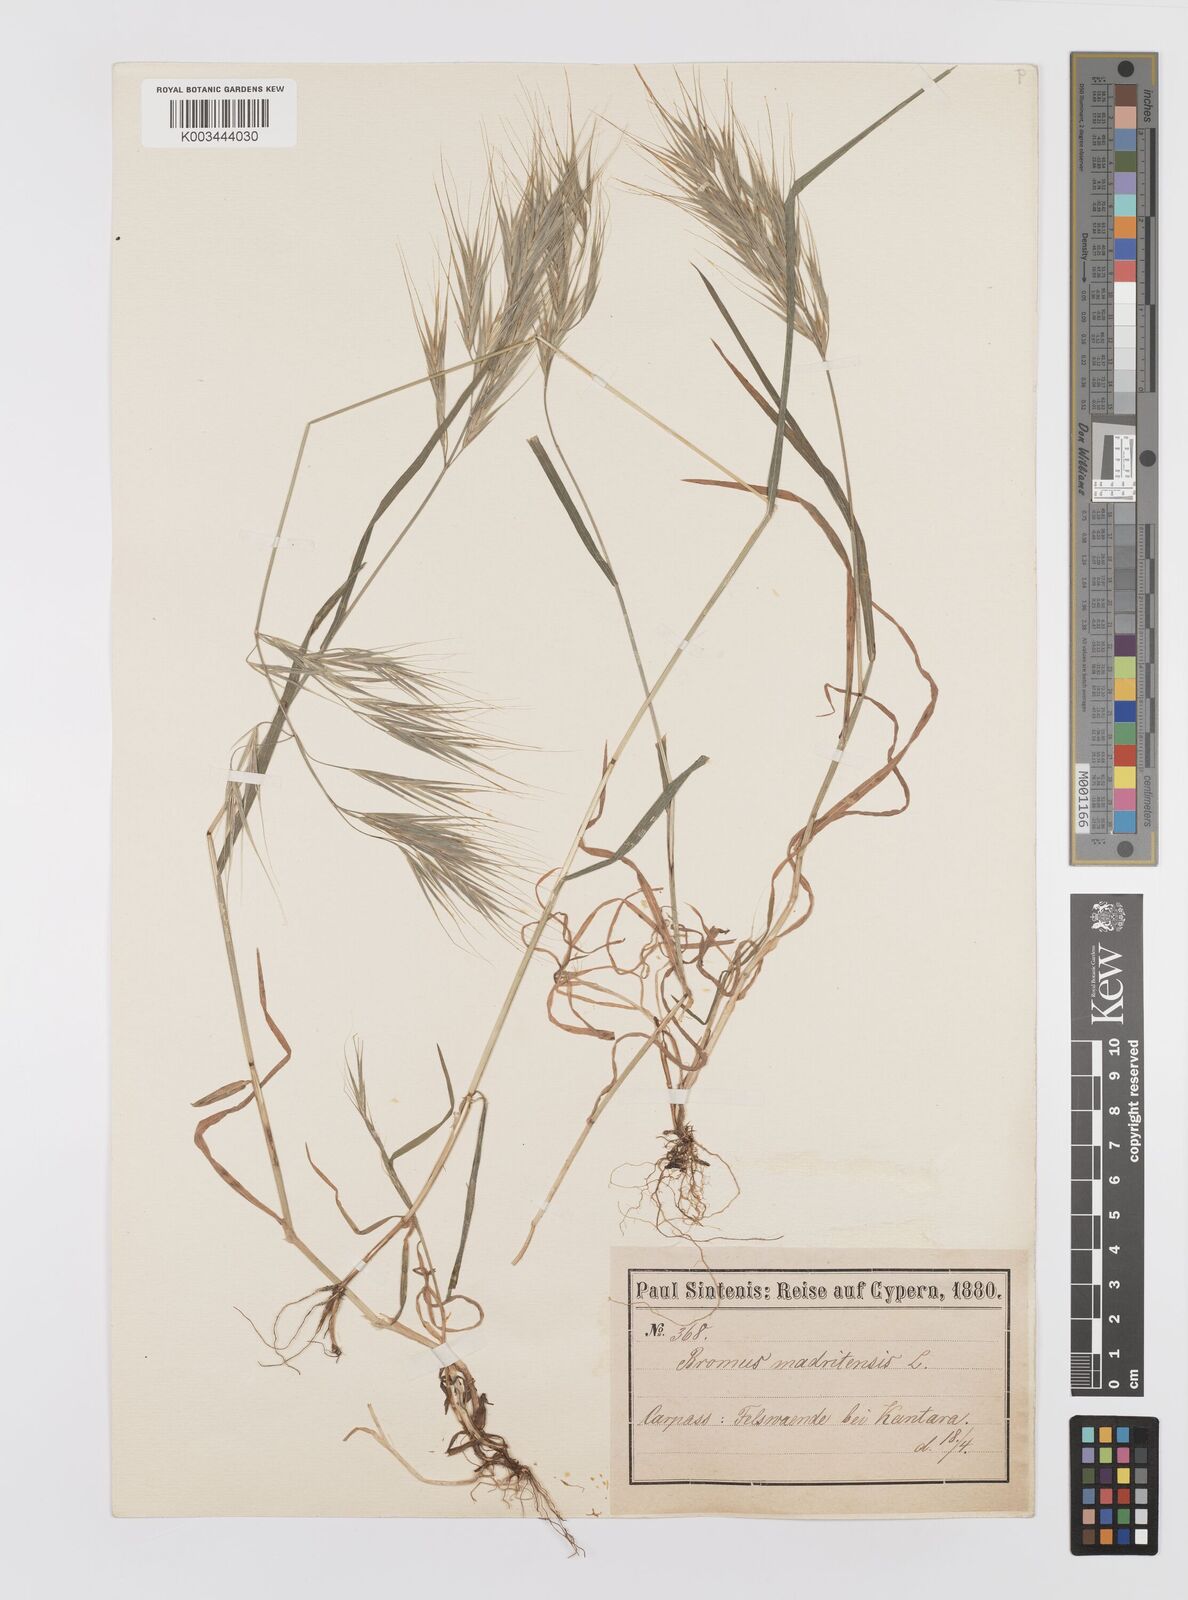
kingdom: Plantae
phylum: Tracheophyta
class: Liliopsida
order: Poales
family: Poaceae
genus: Bromus
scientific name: Bromus sterilis
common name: Poverty brome
